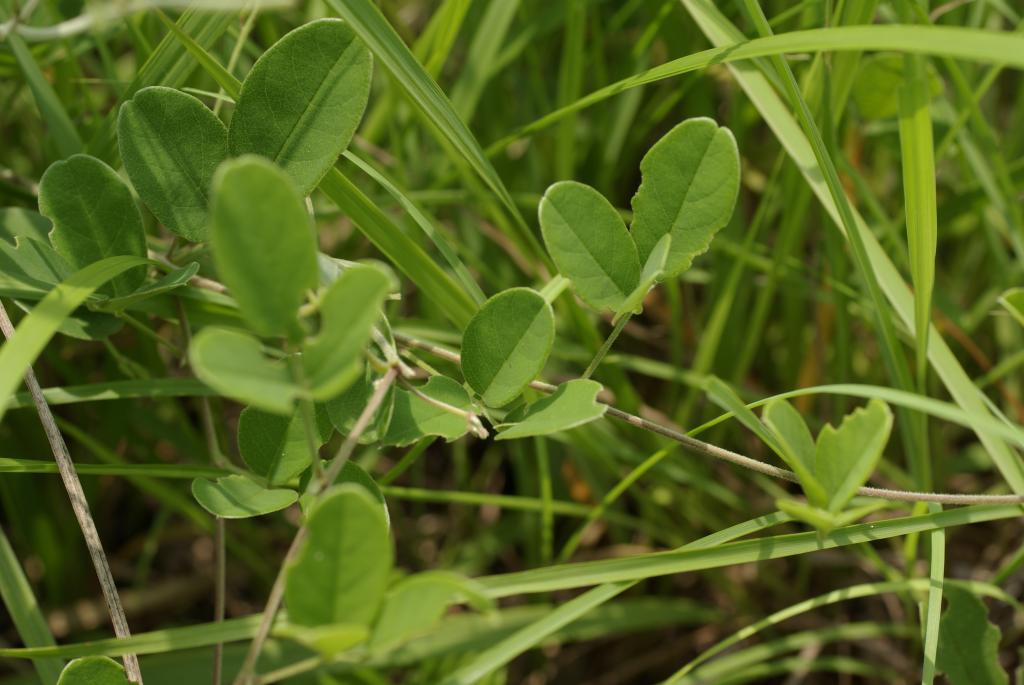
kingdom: Plantae
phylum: Tracheophyta
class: Magnoliopsida
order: Fabales
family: Fabaceae
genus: Galactia
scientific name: Galactia tashiroi
